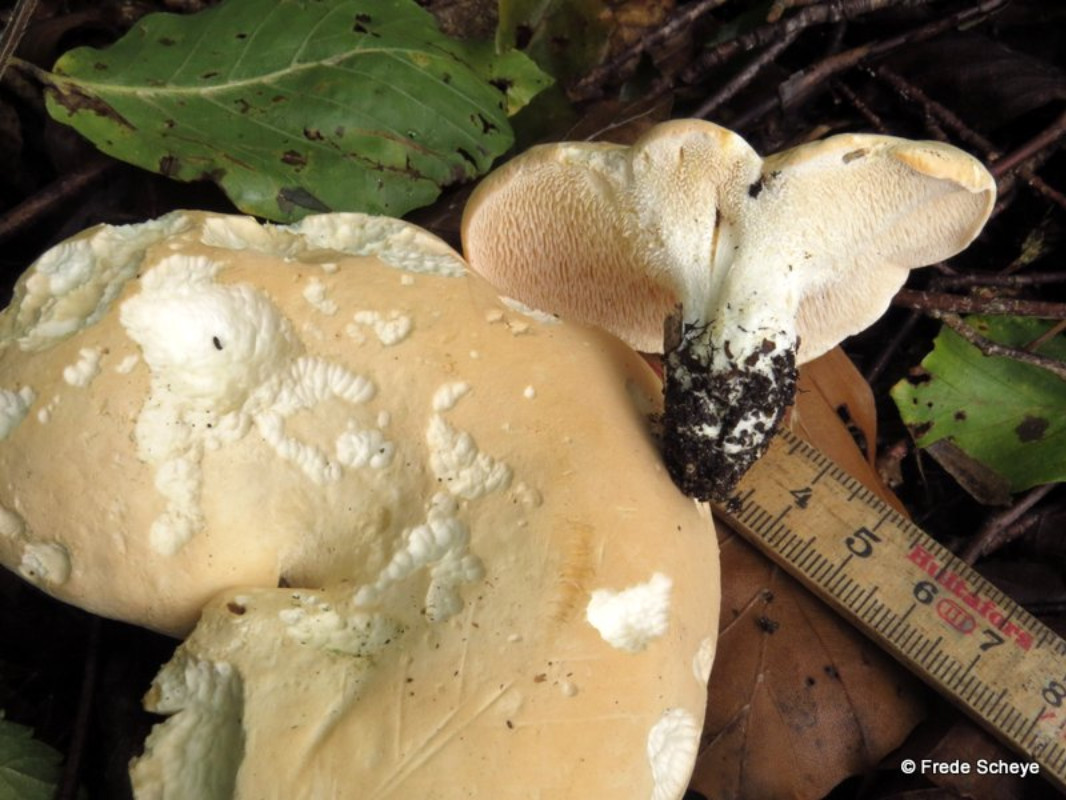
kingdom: Fungi
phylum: Basidiomycota
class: Agaricomycetes
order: Cantharellales
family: Hydnaceae
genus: Hydnum
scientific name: Hydnum repandum
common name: almindelig pigsvamp
